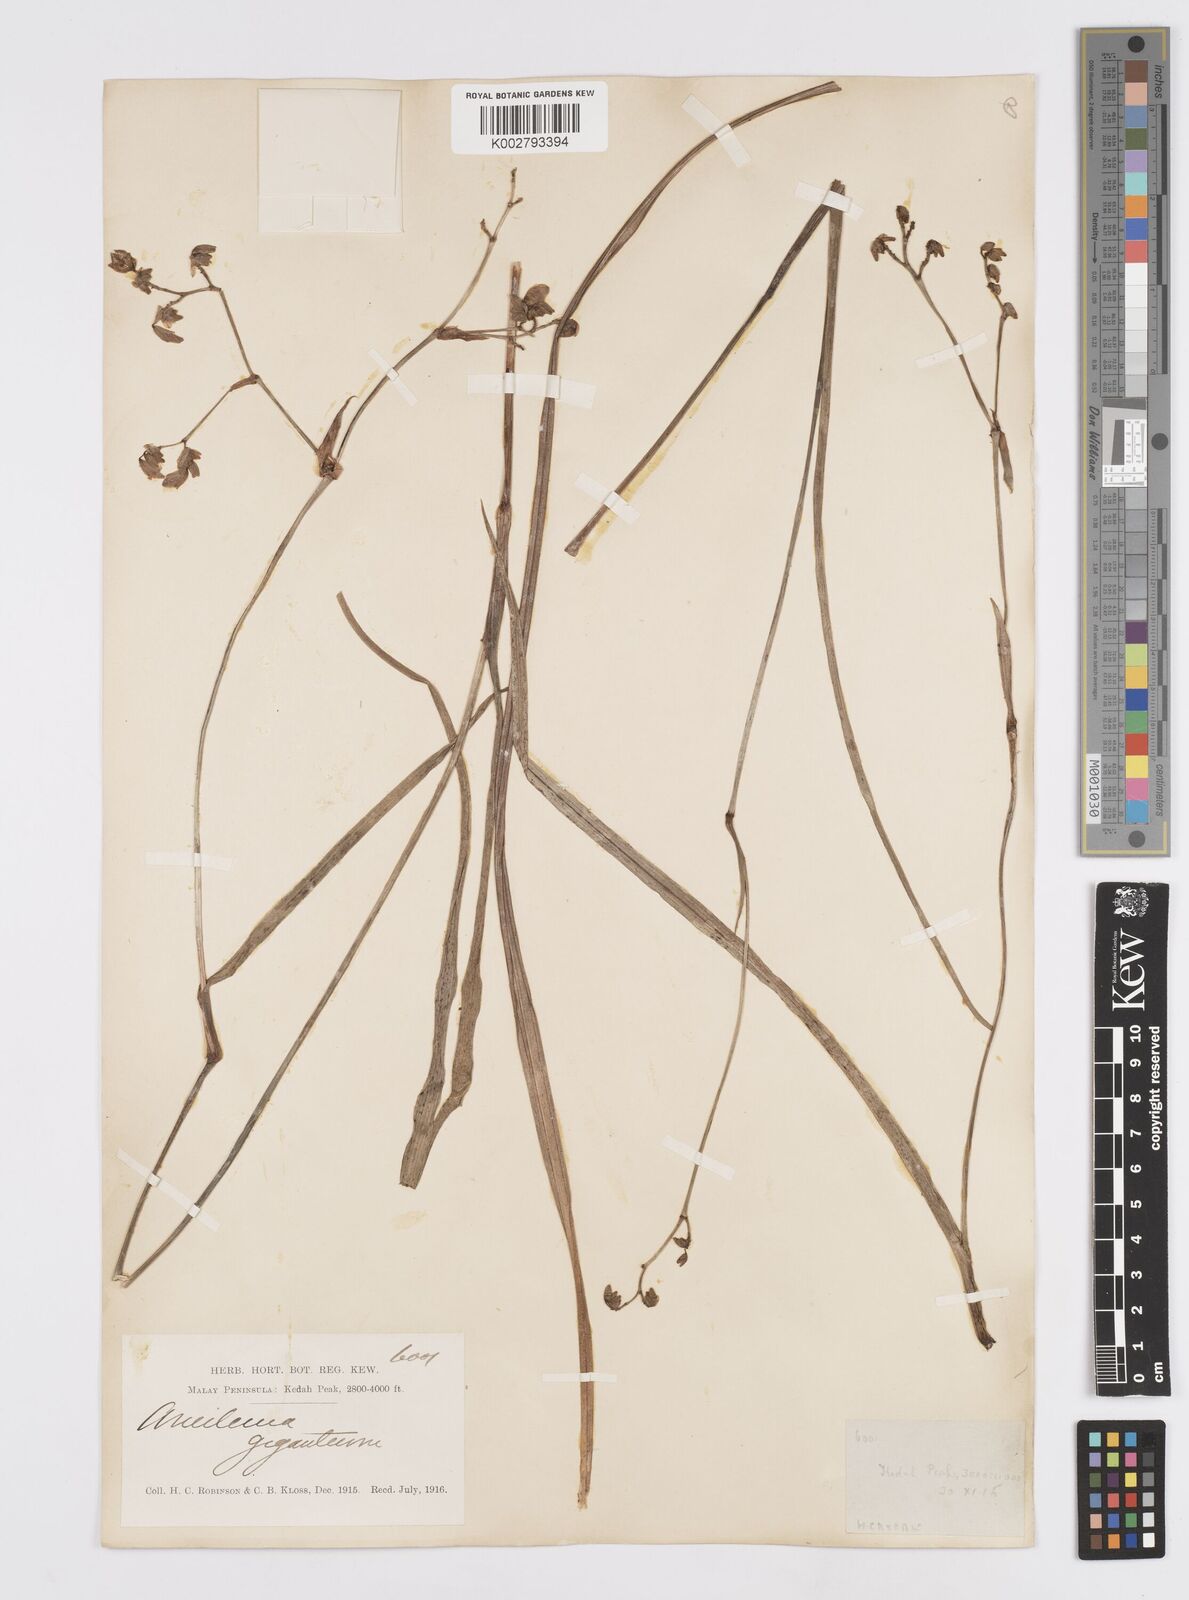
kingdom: Plantae
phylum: Tracheophyta
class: Liliopsida
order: Commelinales
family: Commelinaceae
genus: Murdannia
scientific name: Murdannia gigantea
